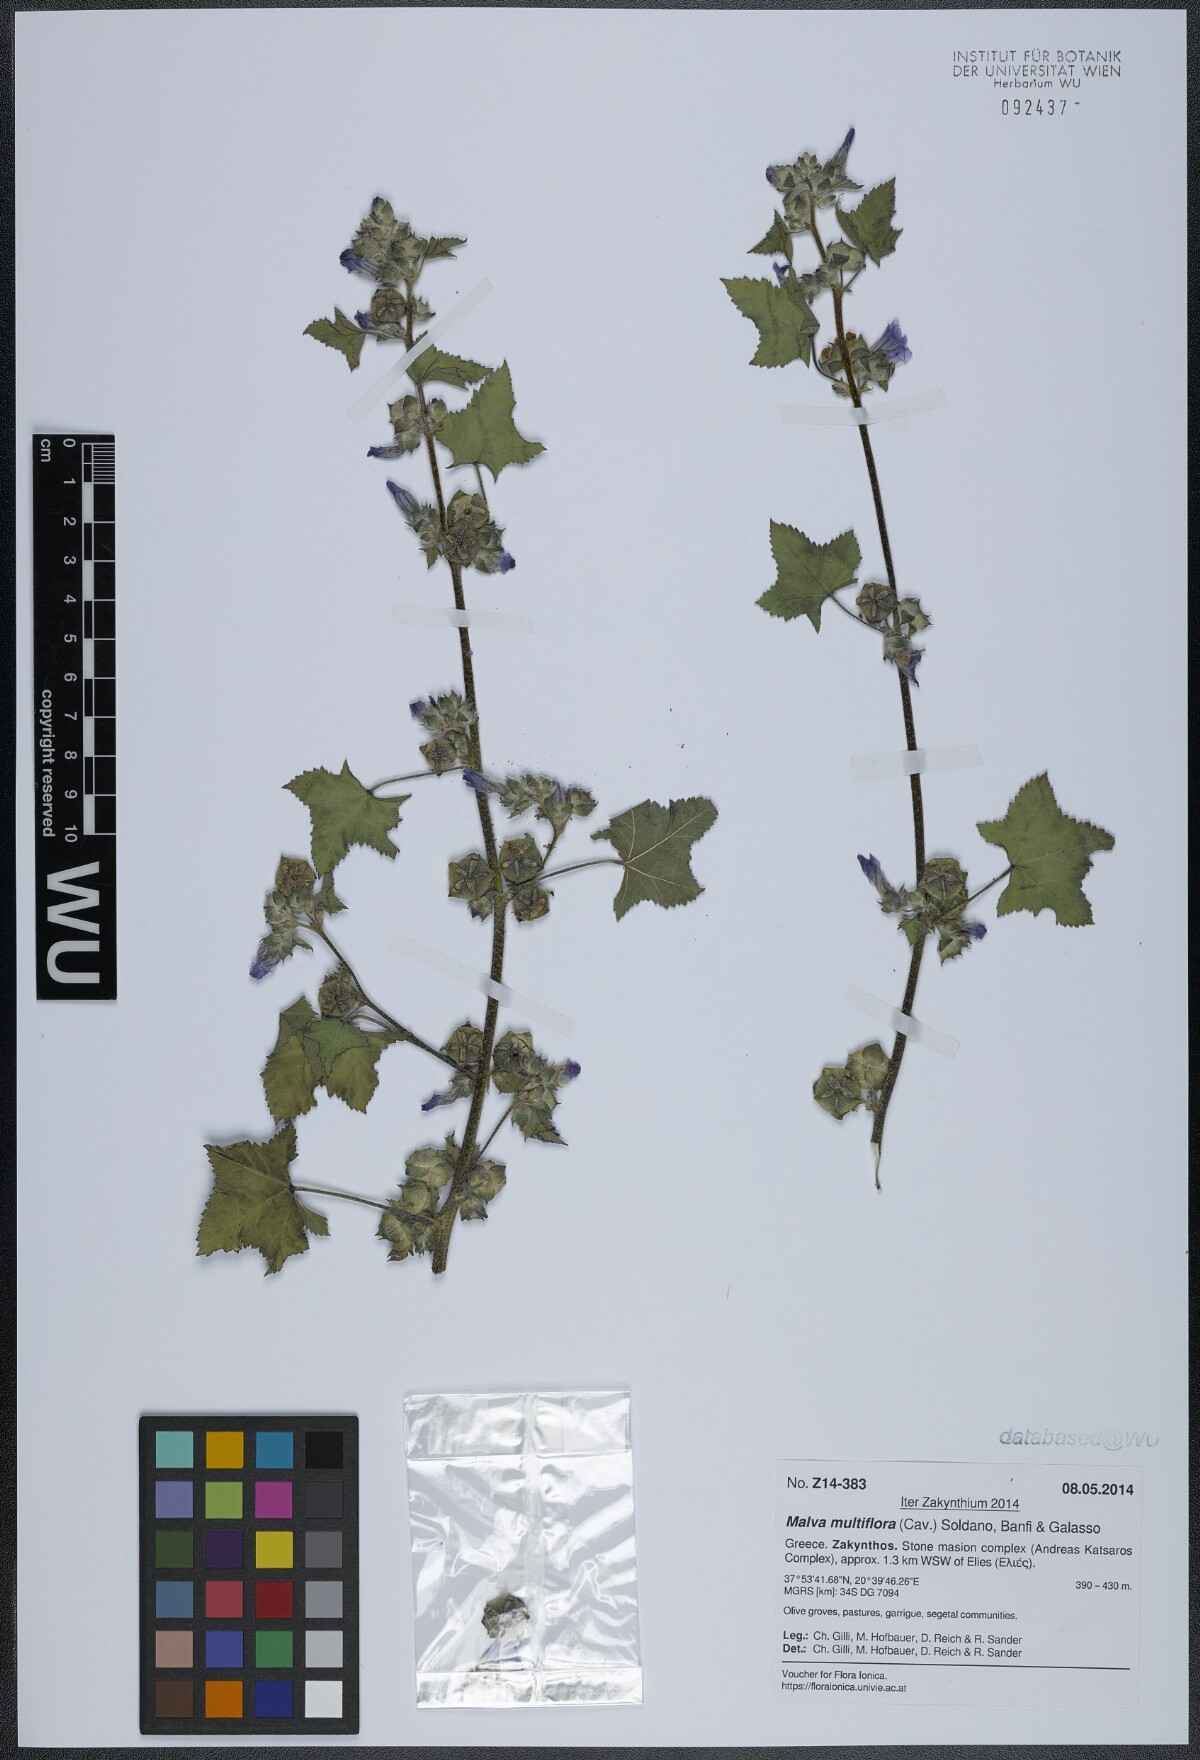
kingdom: Plantae
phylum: Tracheophyta
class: Magnoliopsida
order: Malvales
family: Malvaceae
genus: Malva
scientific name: Malva multiflora
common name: Cheeseweed
